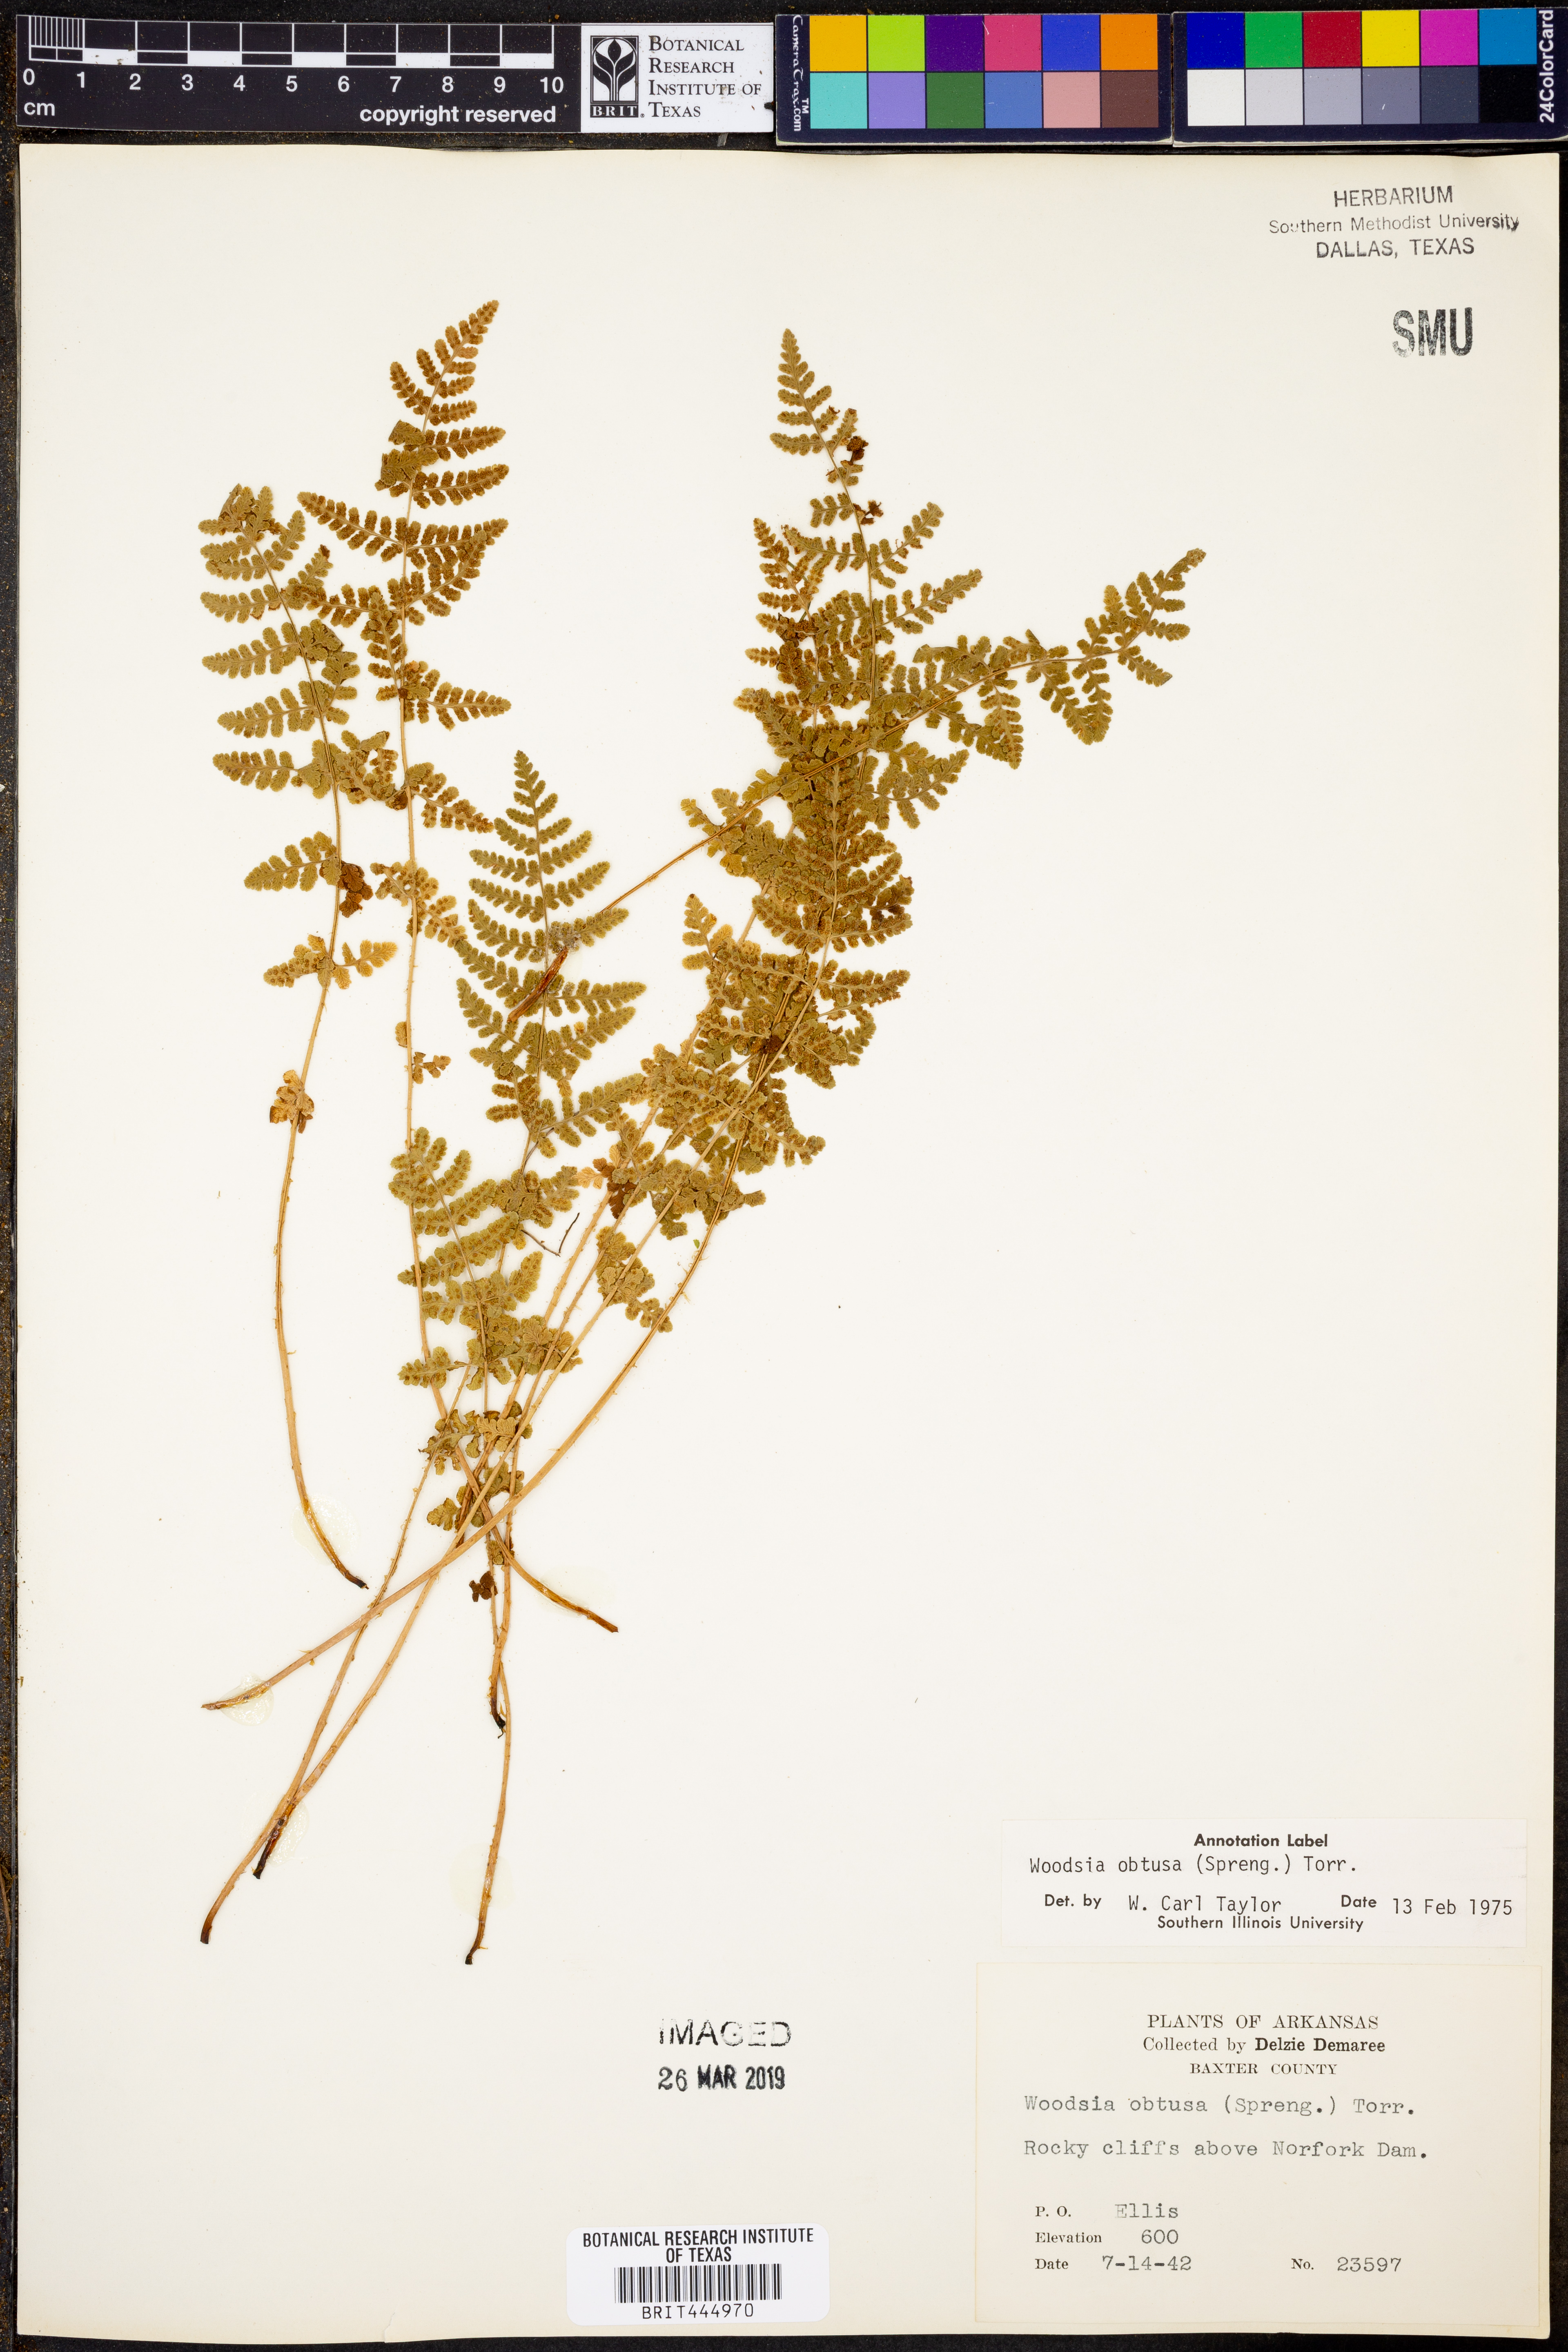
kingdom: Plantae
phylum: Tracheophyta
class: Polypodiopsida
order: Polypodiales
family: Woodsiaceae
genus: Physematium
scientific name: Physematium obtusum
